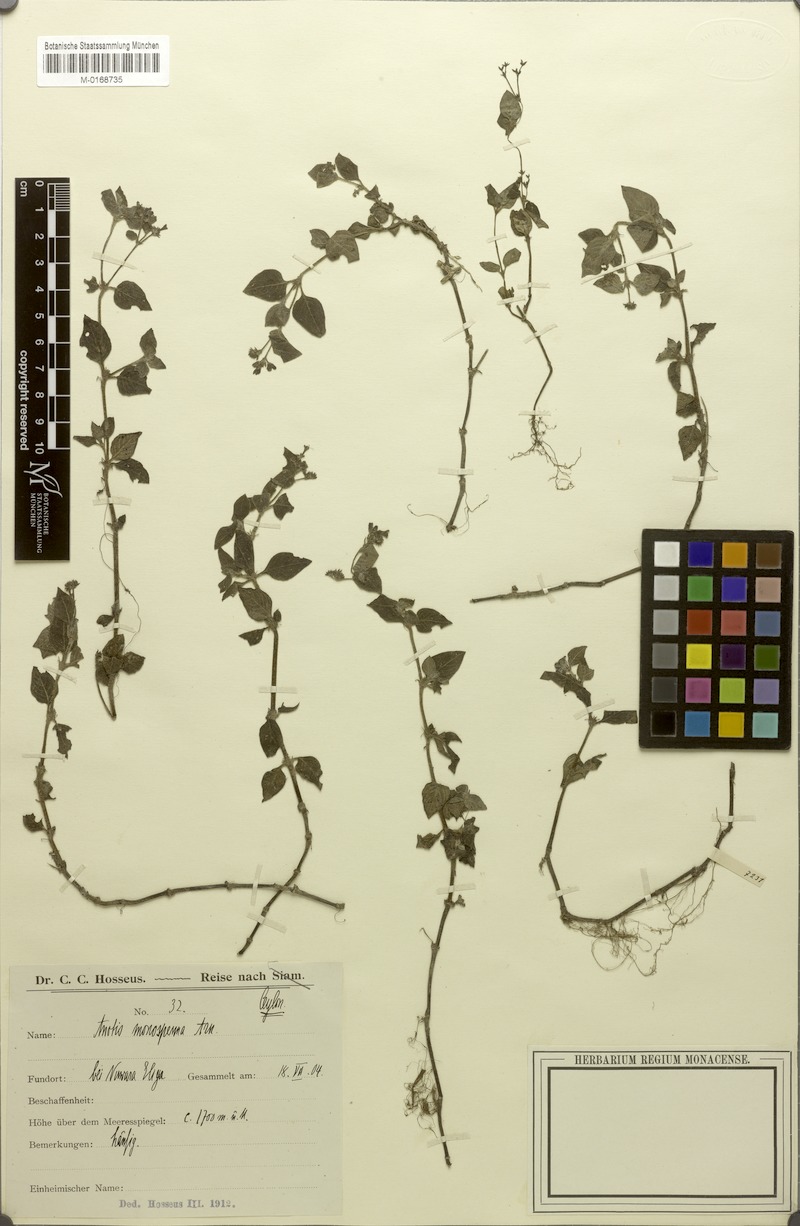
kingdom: Plantae
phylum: Tracheophyta
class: Magnoliopsida
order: Gentianales
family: Rubiaceae
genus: Neanotis
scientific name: Neanotis monosperma
